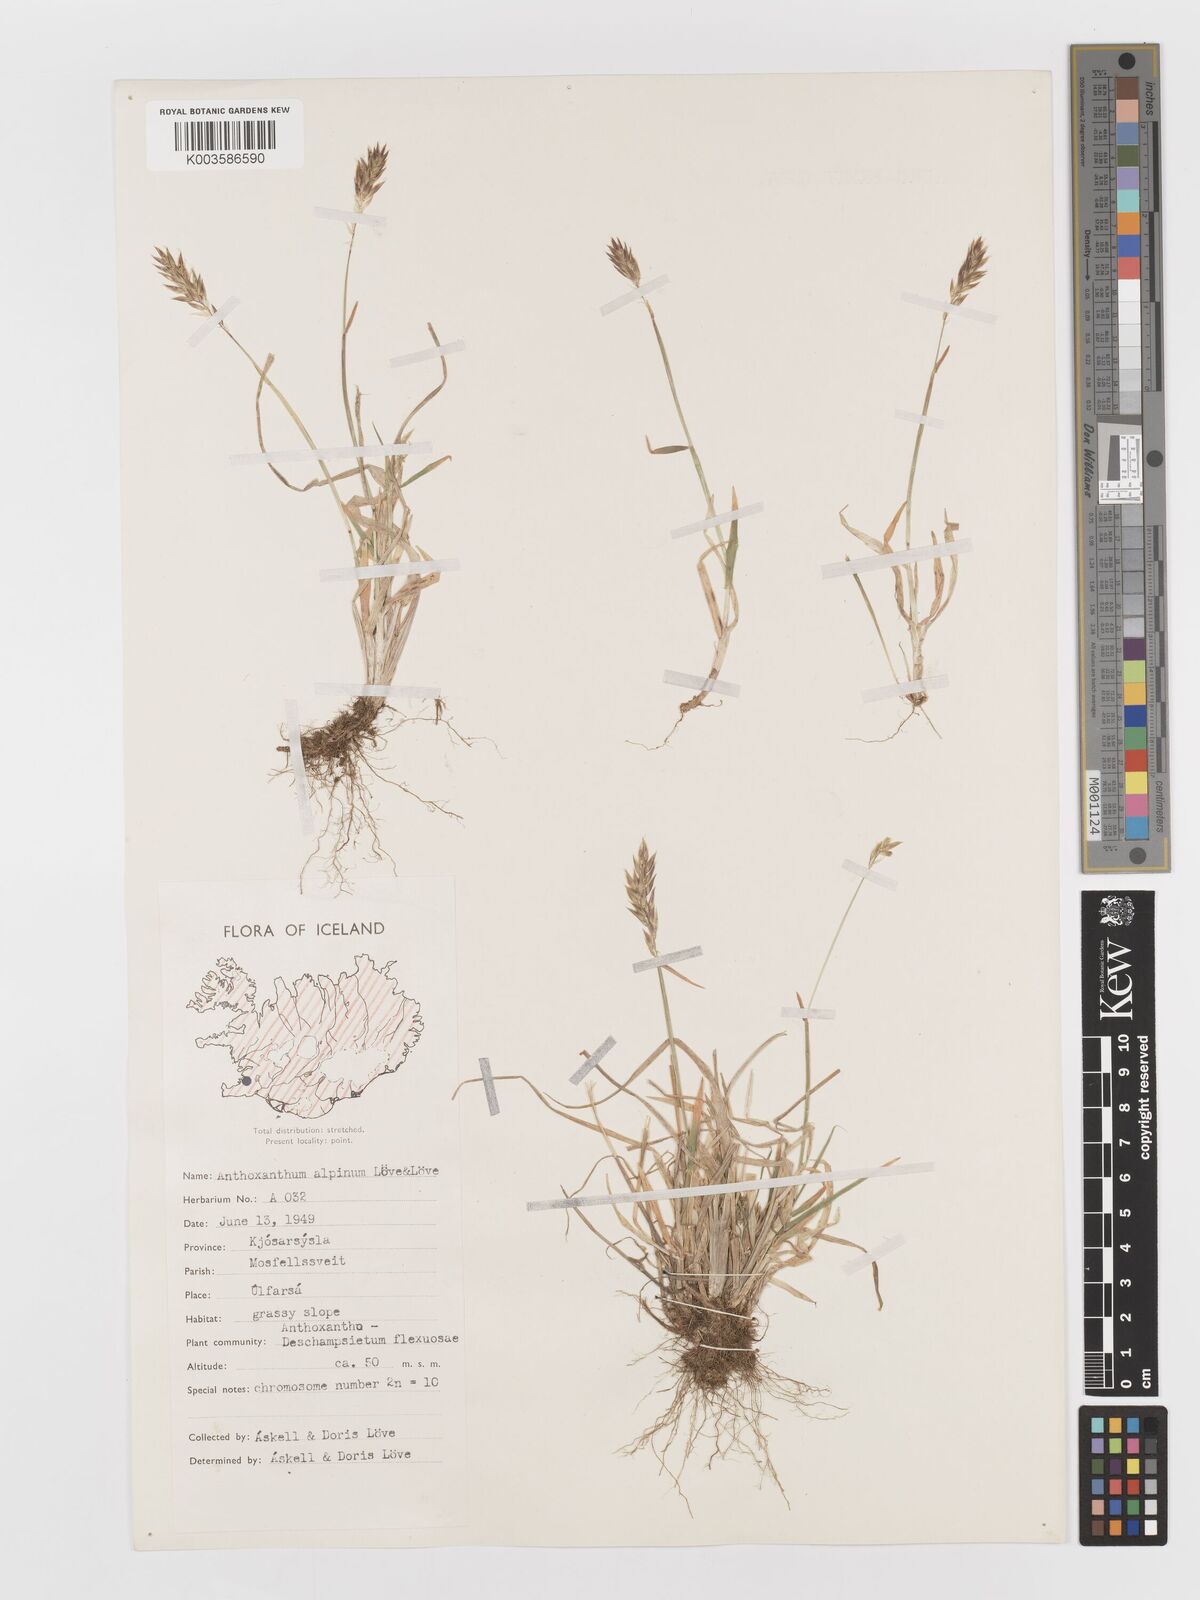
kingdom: Plantae
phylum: Tracheophyta
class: Liliopsida
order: Poales
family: Poaceae
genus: Anthoxanthum
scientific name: Anthoxanthum odoratum
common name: Sweet vernalgrass
